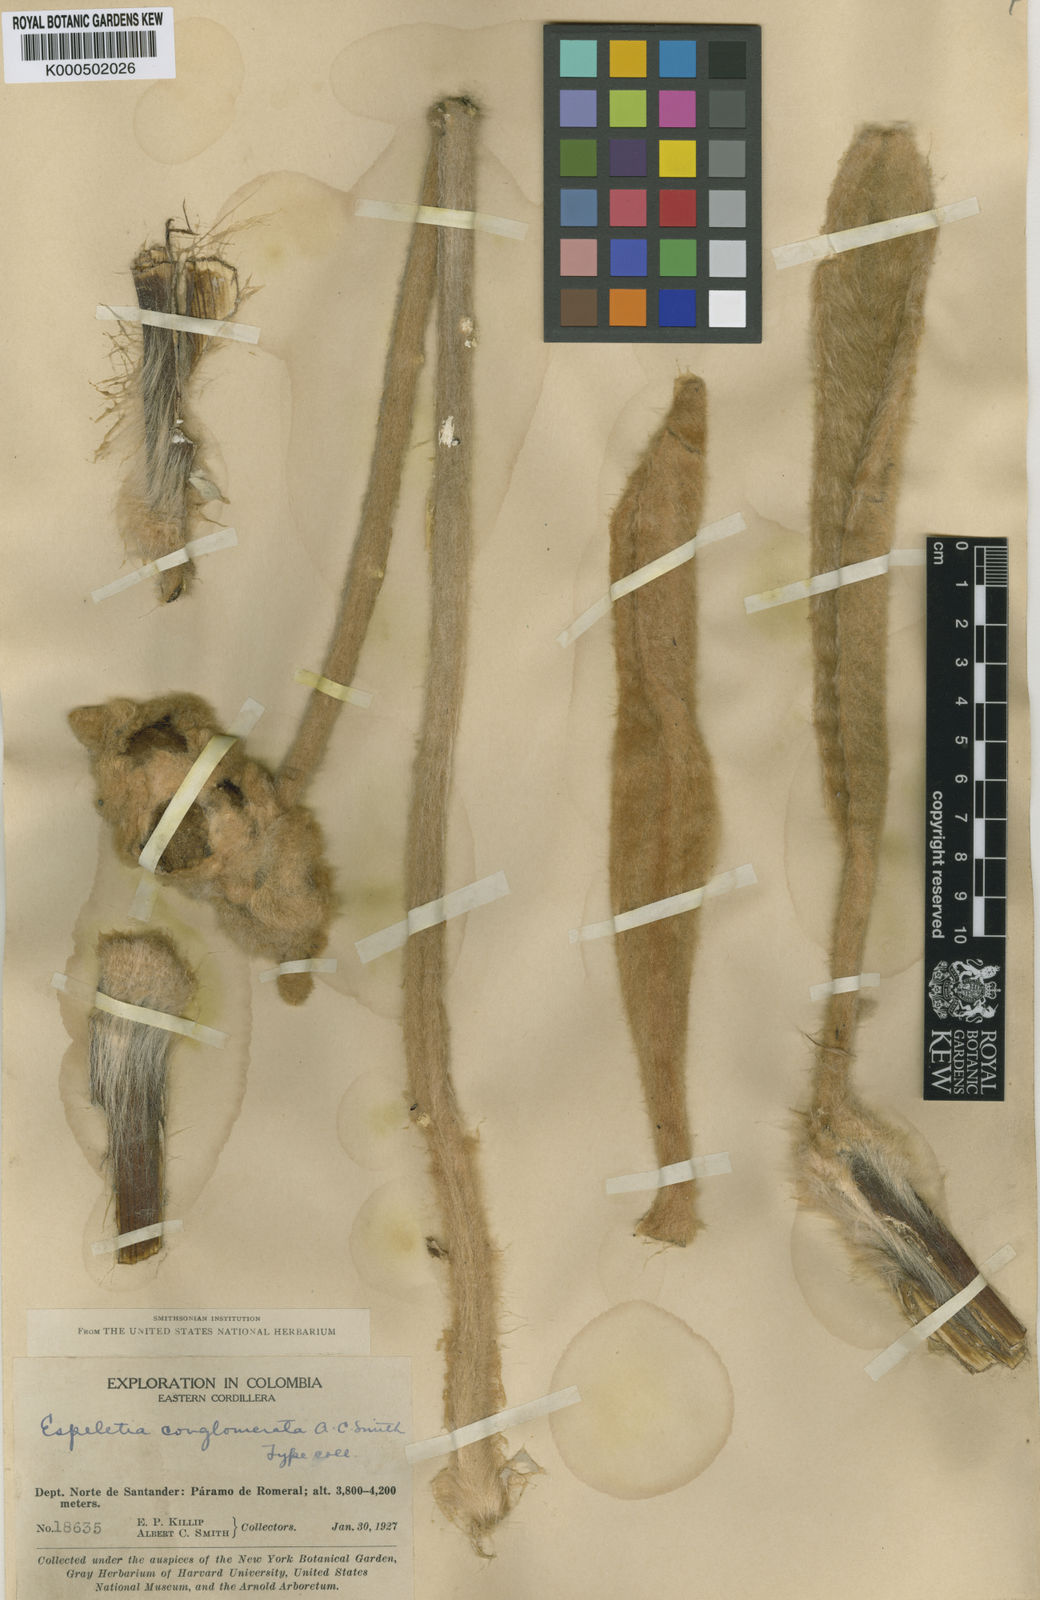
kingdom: Plantae
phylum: Tracheophyta
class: Magnoliopsida
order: Asterales
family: Asteraceae
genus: Espeletia
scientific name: Espeletia conglomerata
